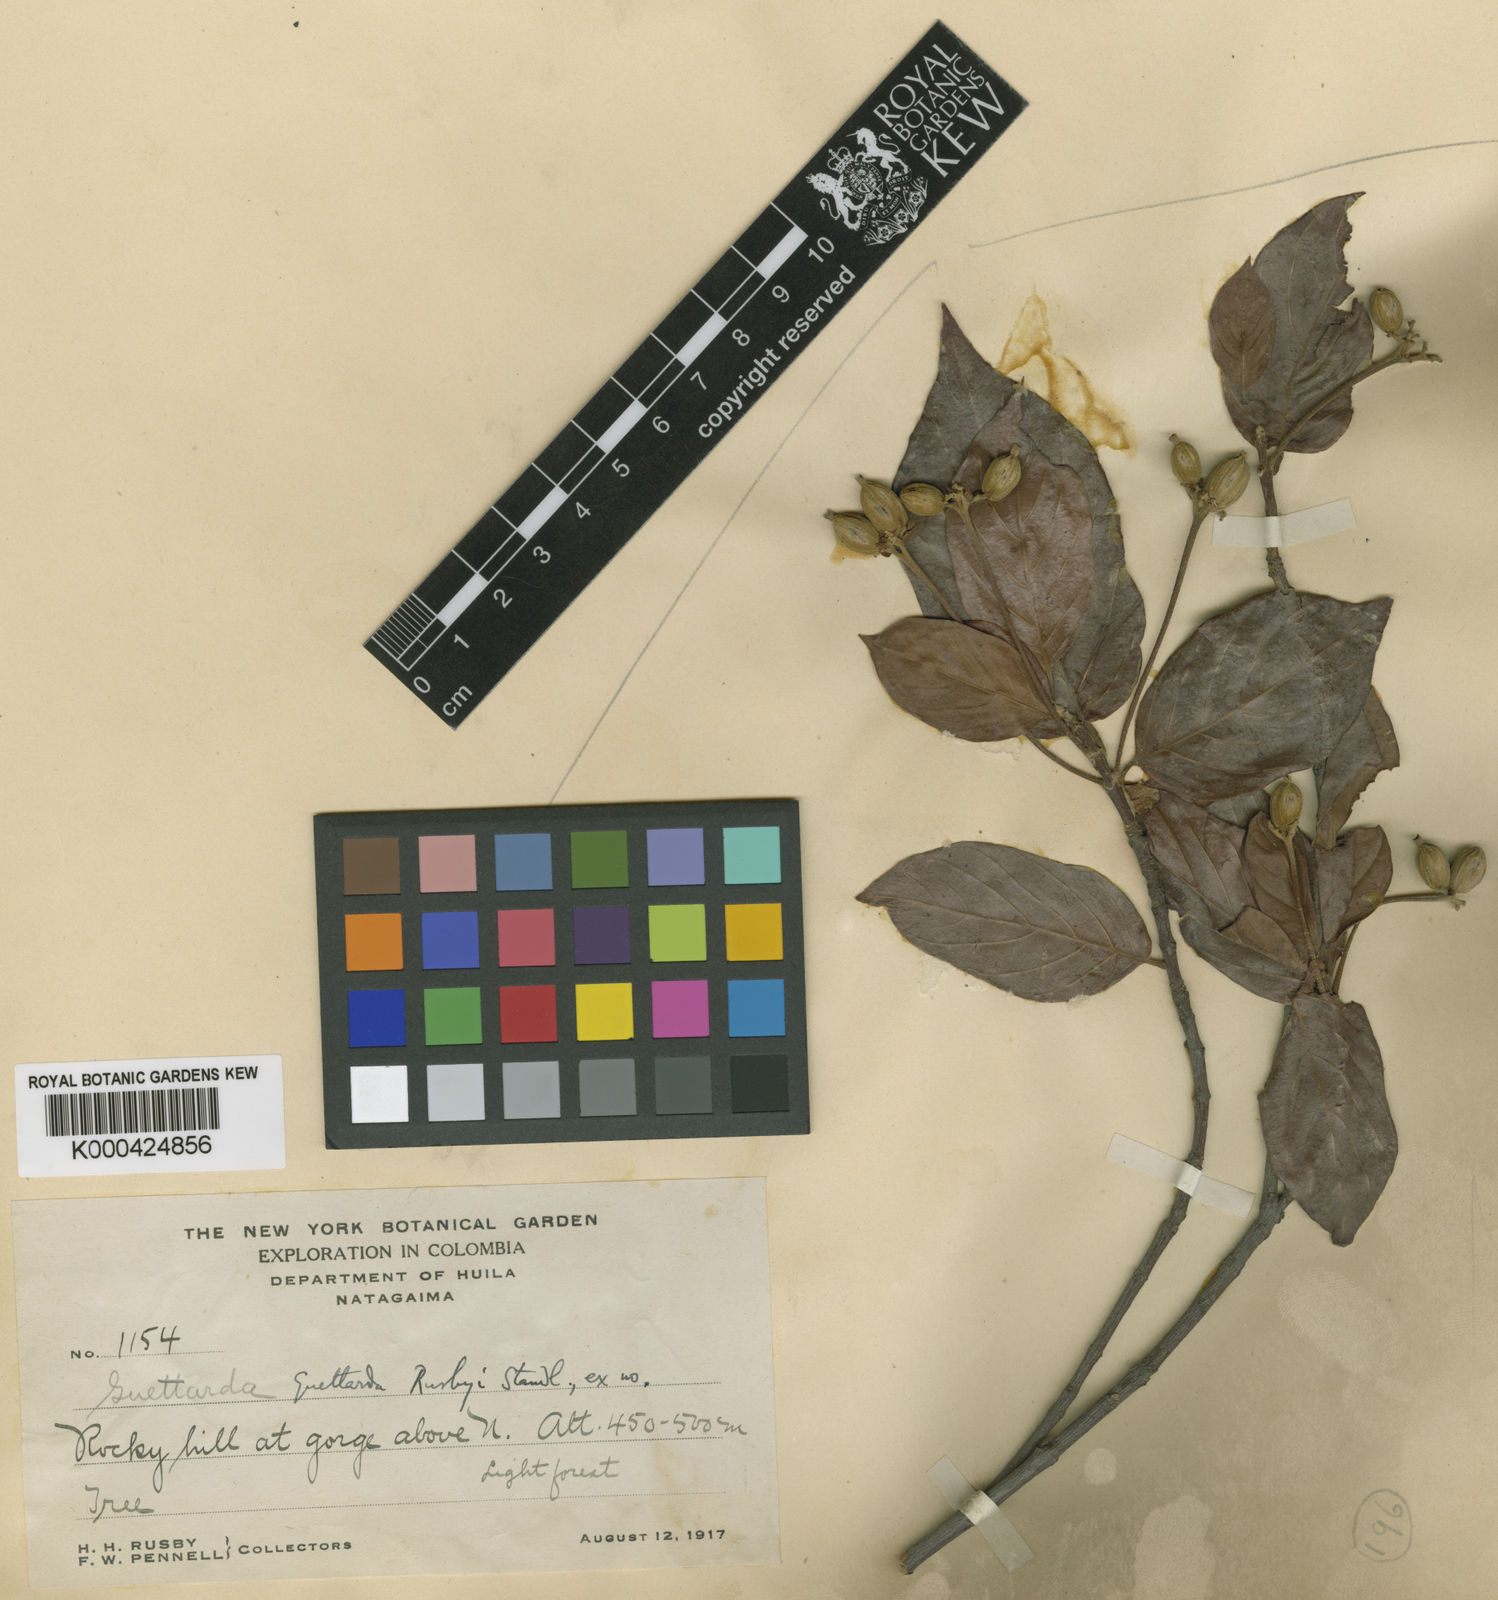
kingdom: Plantae
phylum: Tracheophyta
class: Magnoliopsida
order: Gentianales
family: Rubiaceae
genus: Guettarda
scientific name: Guettarda rusbyi
